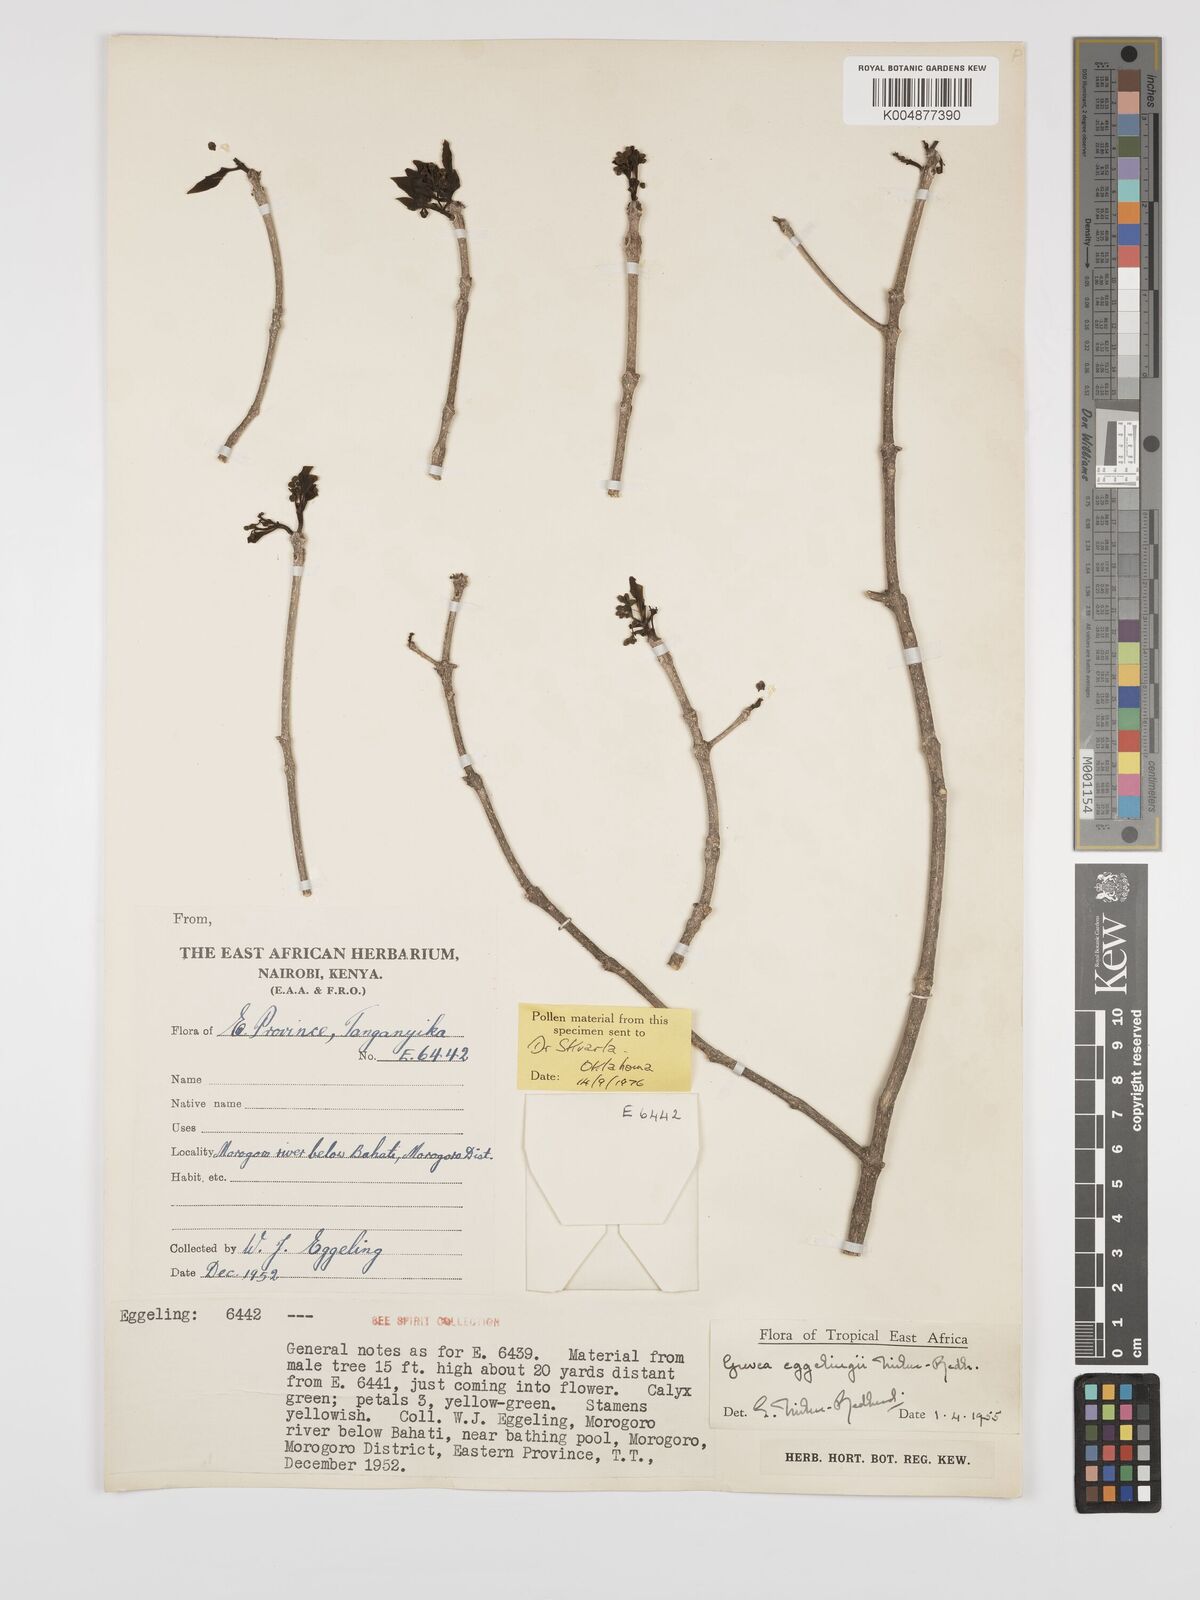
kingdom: Plantae
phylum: Tracheophyta
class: Magnoliopsida
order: Solanales
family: Montiniaceae
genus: Grevea
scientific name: Grevea eggelingii
